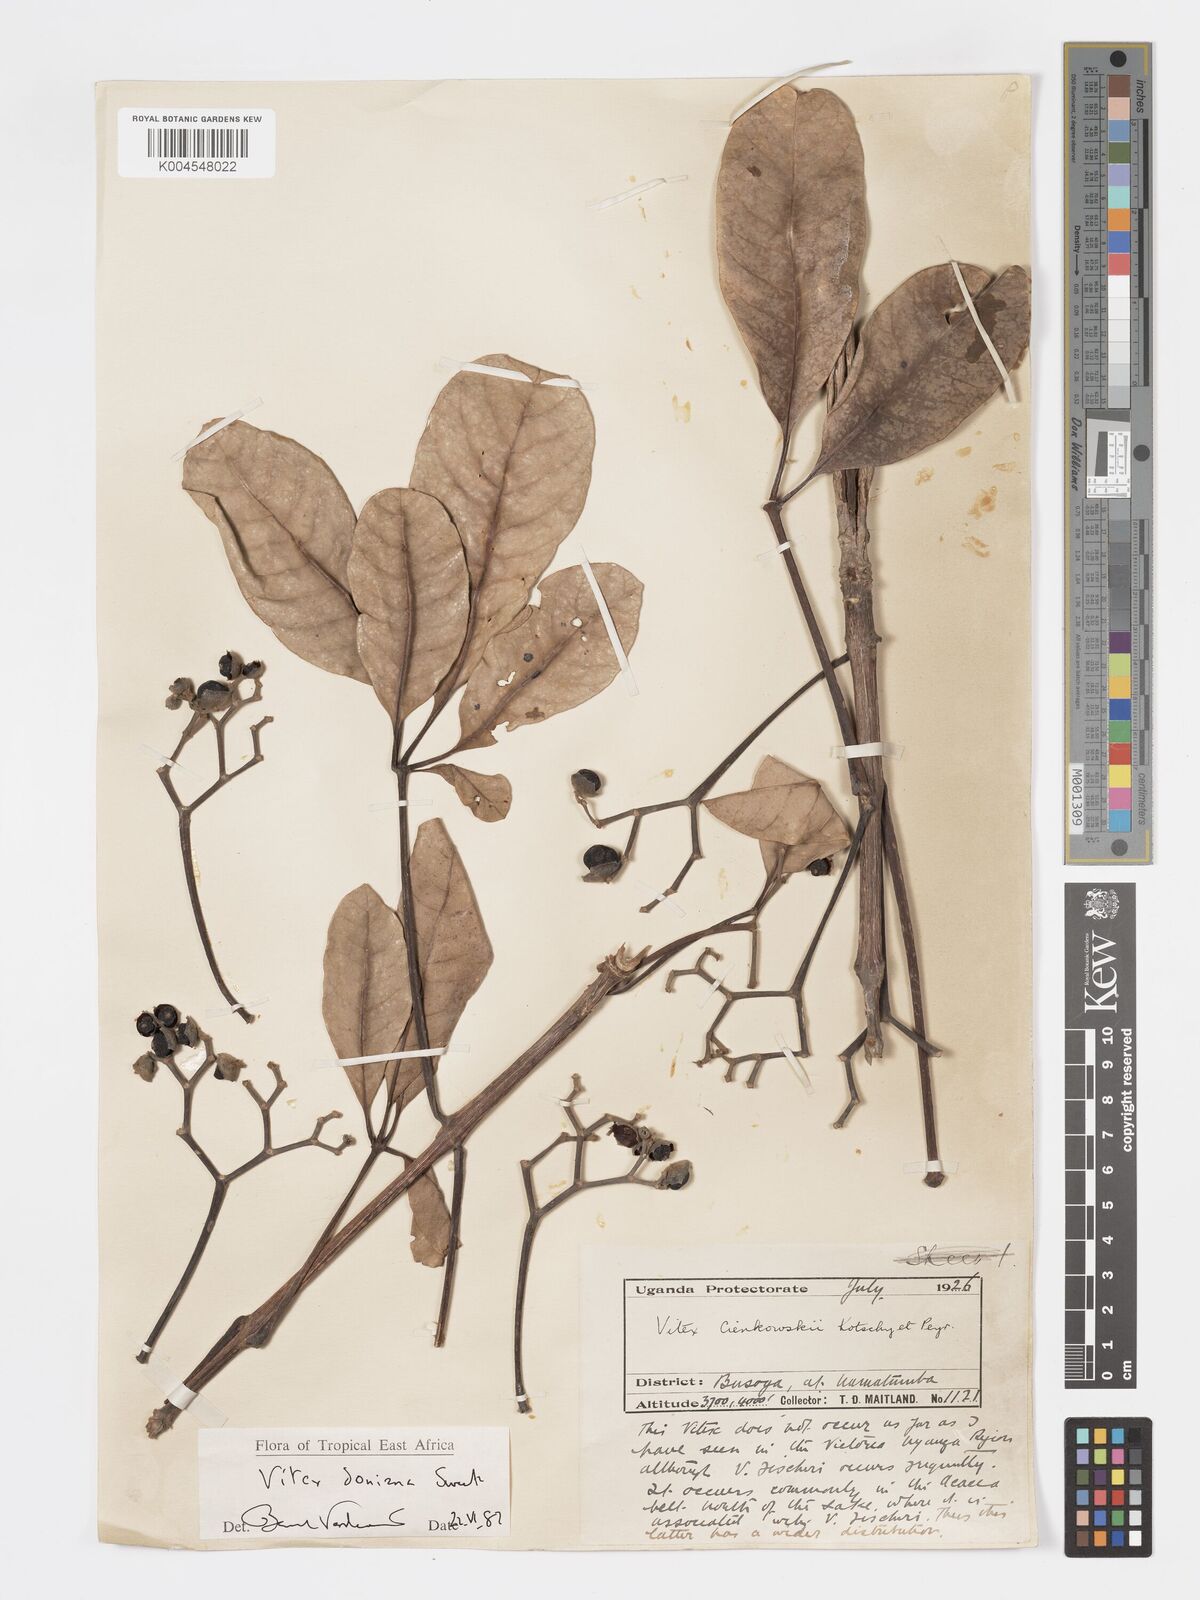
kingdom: Plantae
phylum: Tracheophyta
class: Magnoliopsida
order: Lamiales
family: Lamiaceae
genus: Vitex
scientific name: Vitex doniana
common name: Black plum
